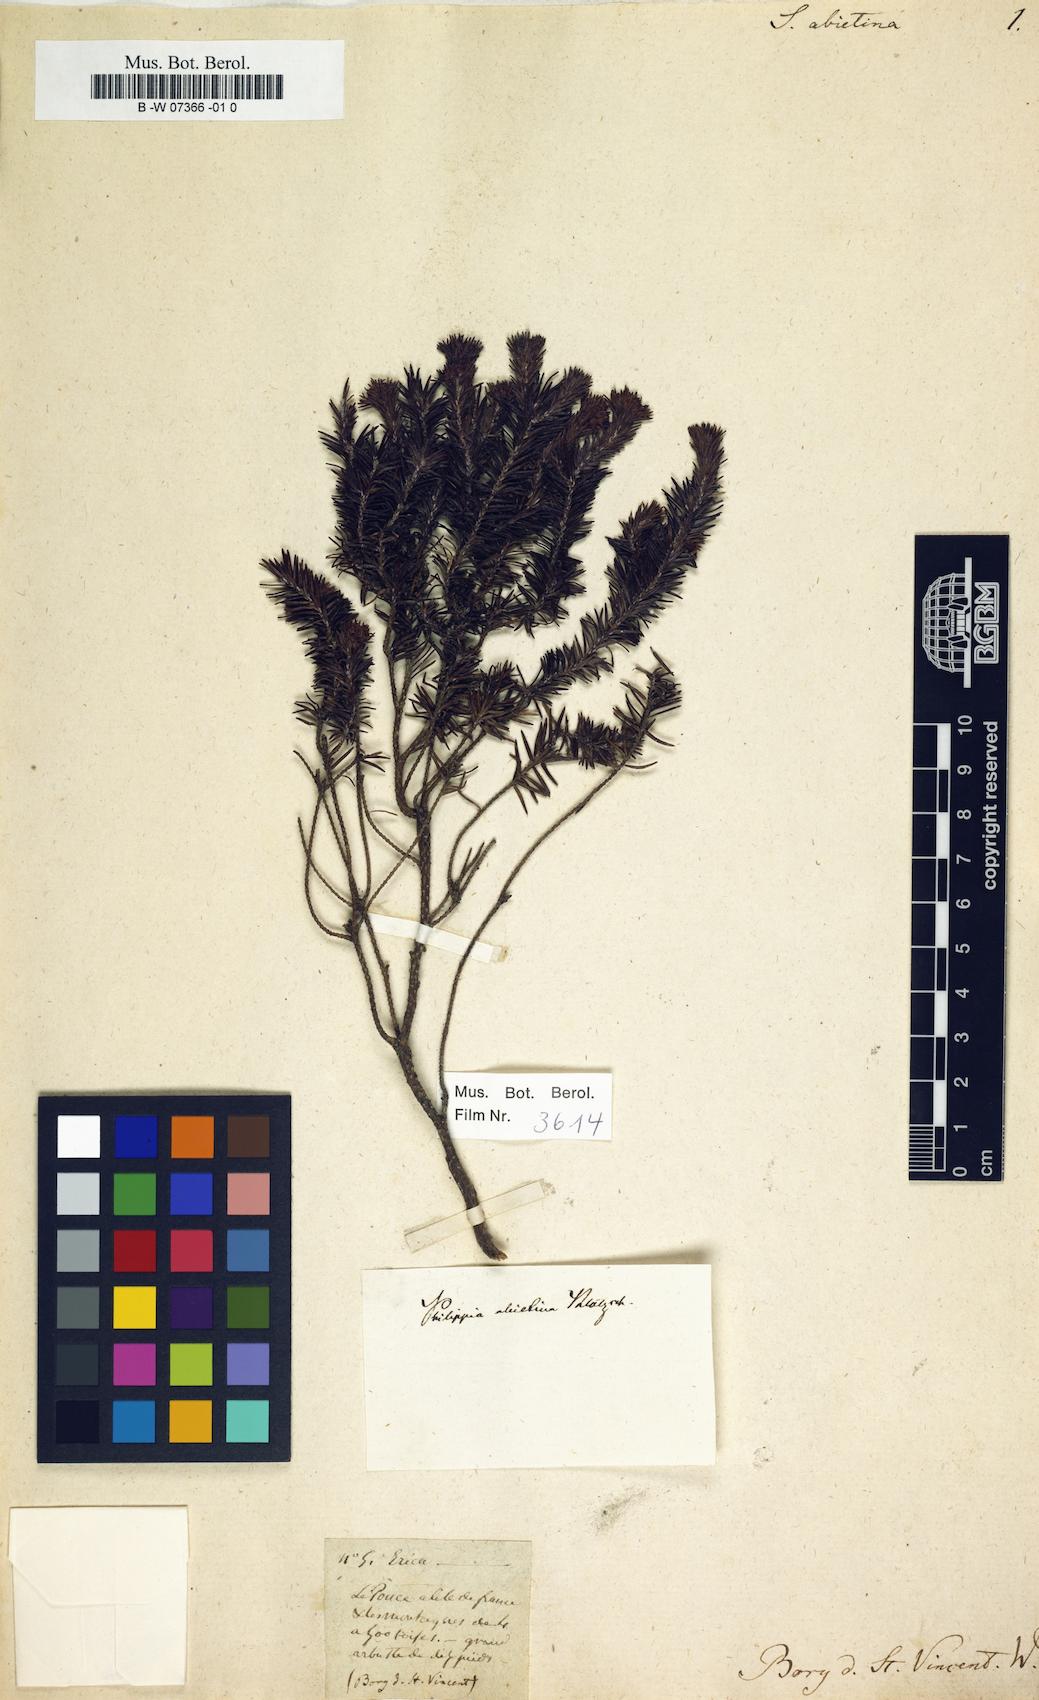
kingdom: Plantae
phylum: Tracheophyta
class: Magnoliopsida
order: Ericales
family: Ericaceae
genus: Erica
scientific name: Erica mauritiensis
